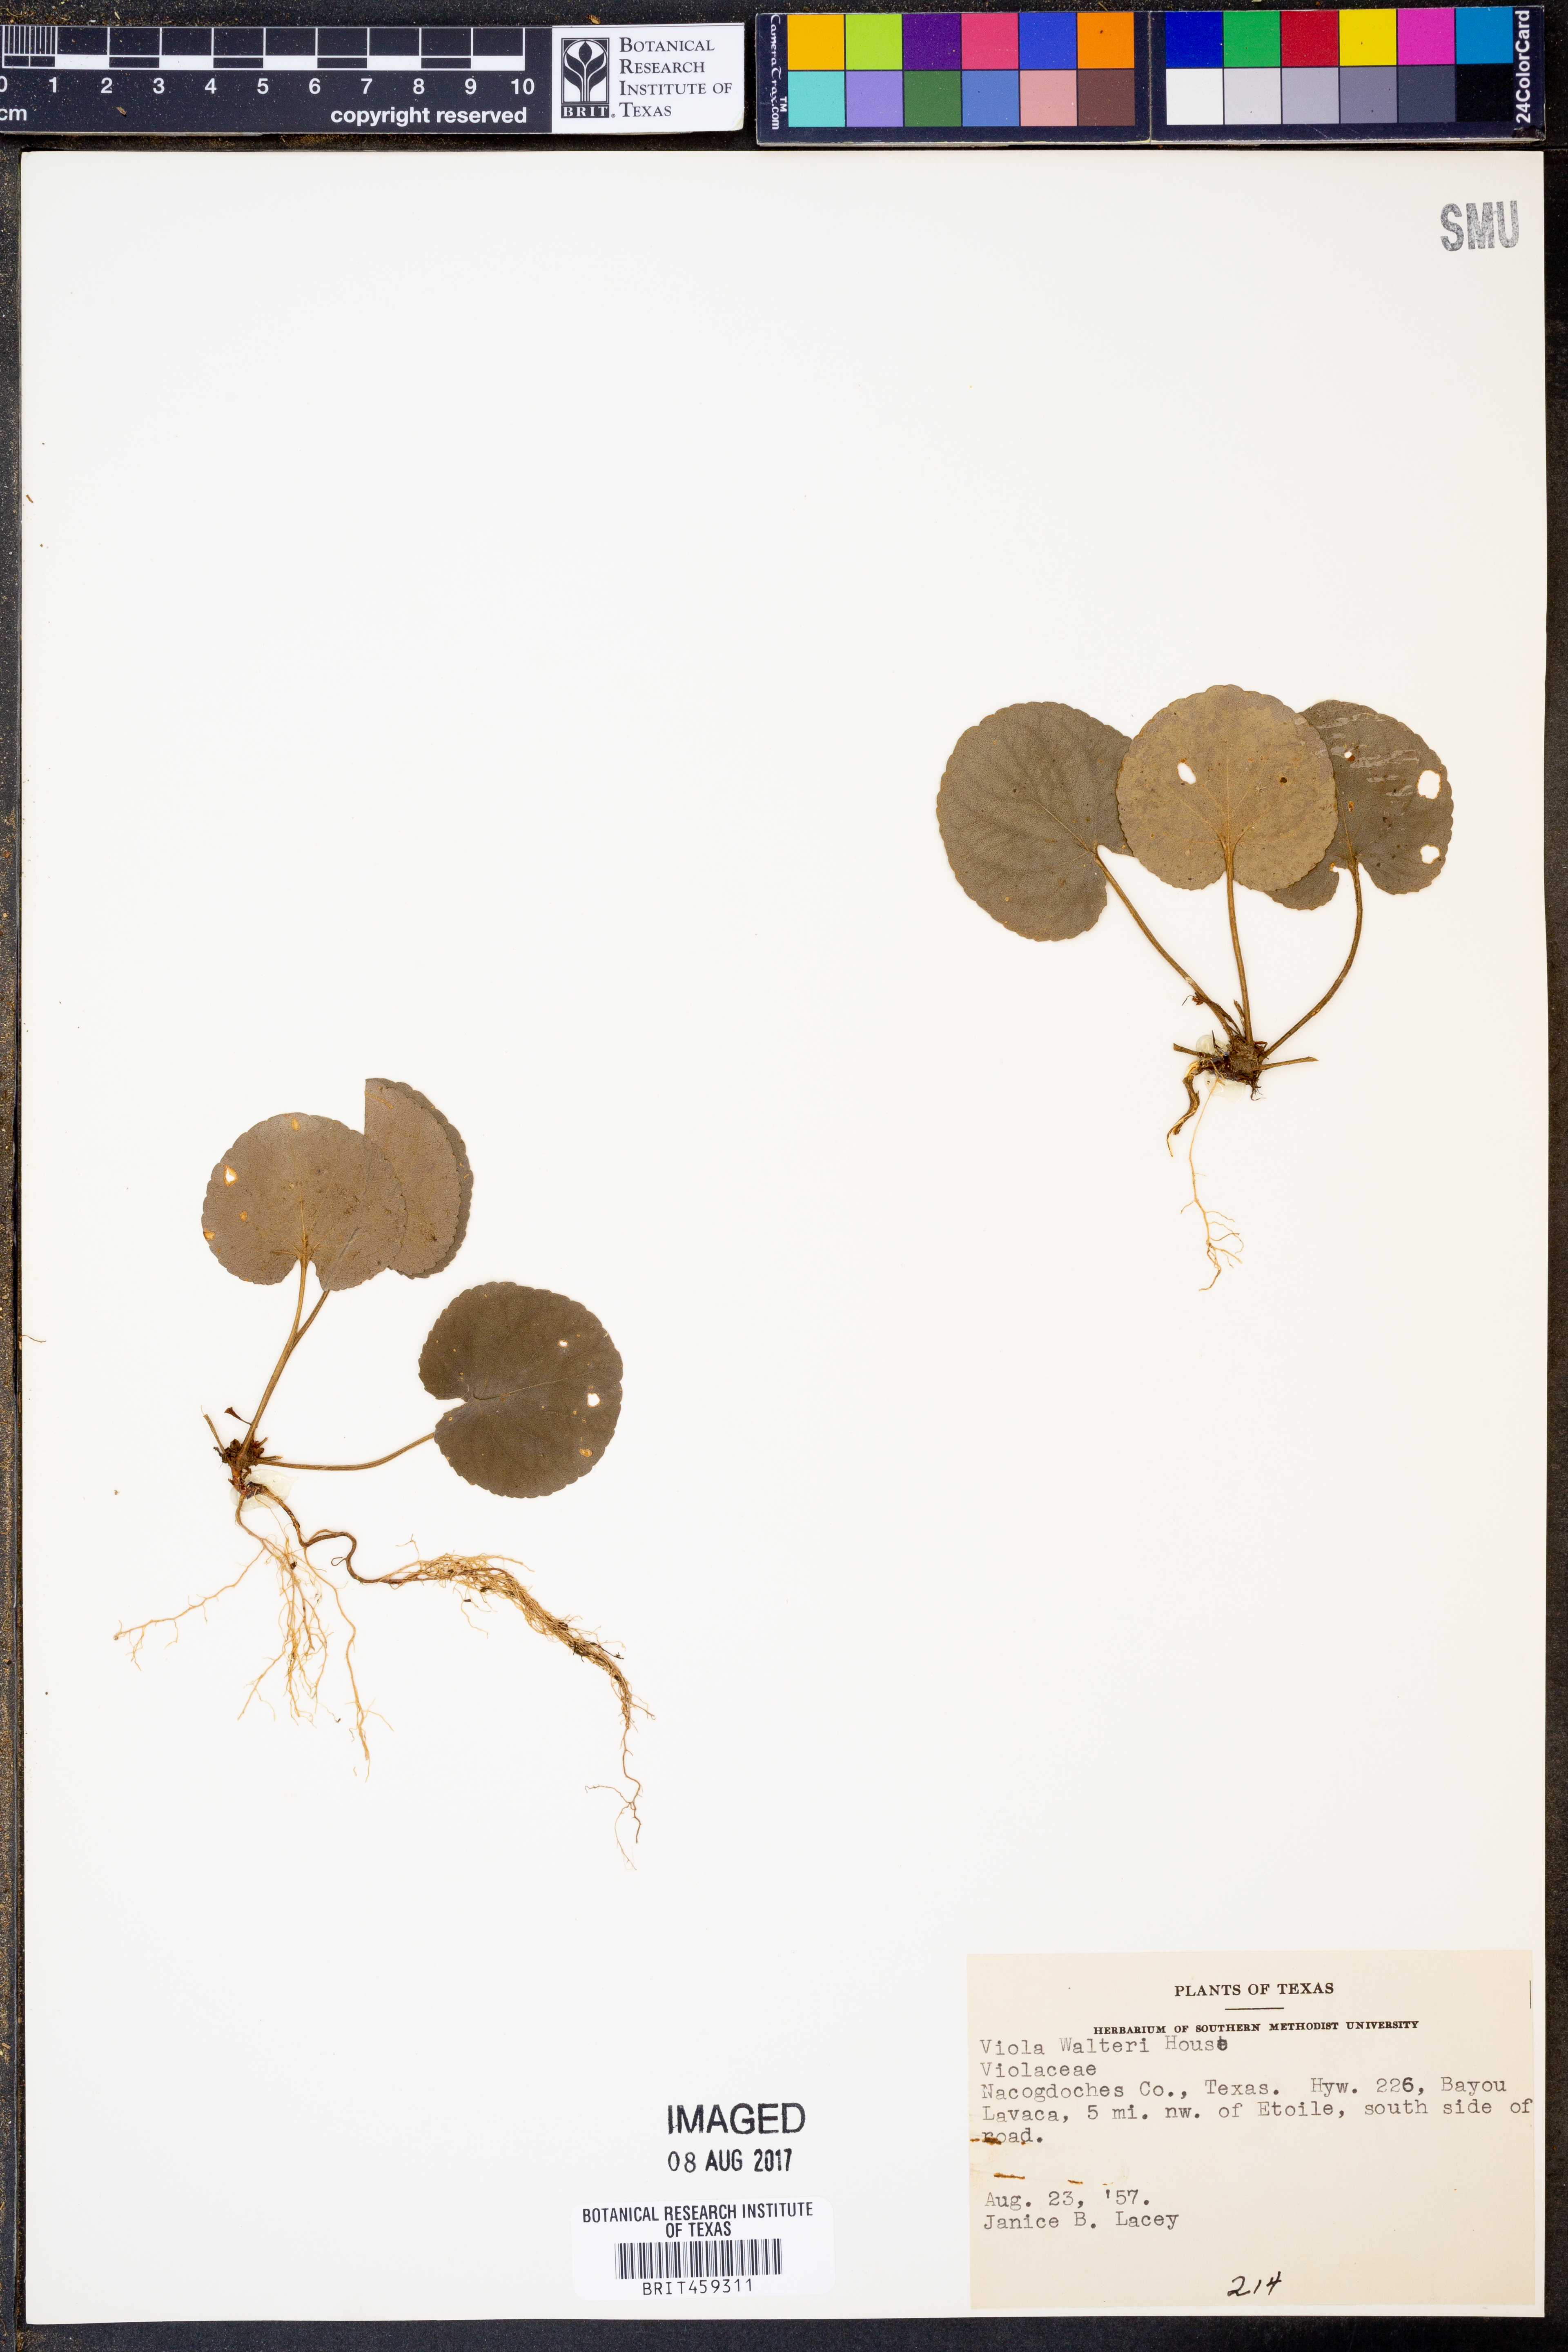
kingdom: Plantae
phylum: Tracheophyta
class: Magnoliopsida
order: Malpighiales
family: Violaceae
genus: Viola
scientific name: Viola walteri
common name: Prostrate southern violet
